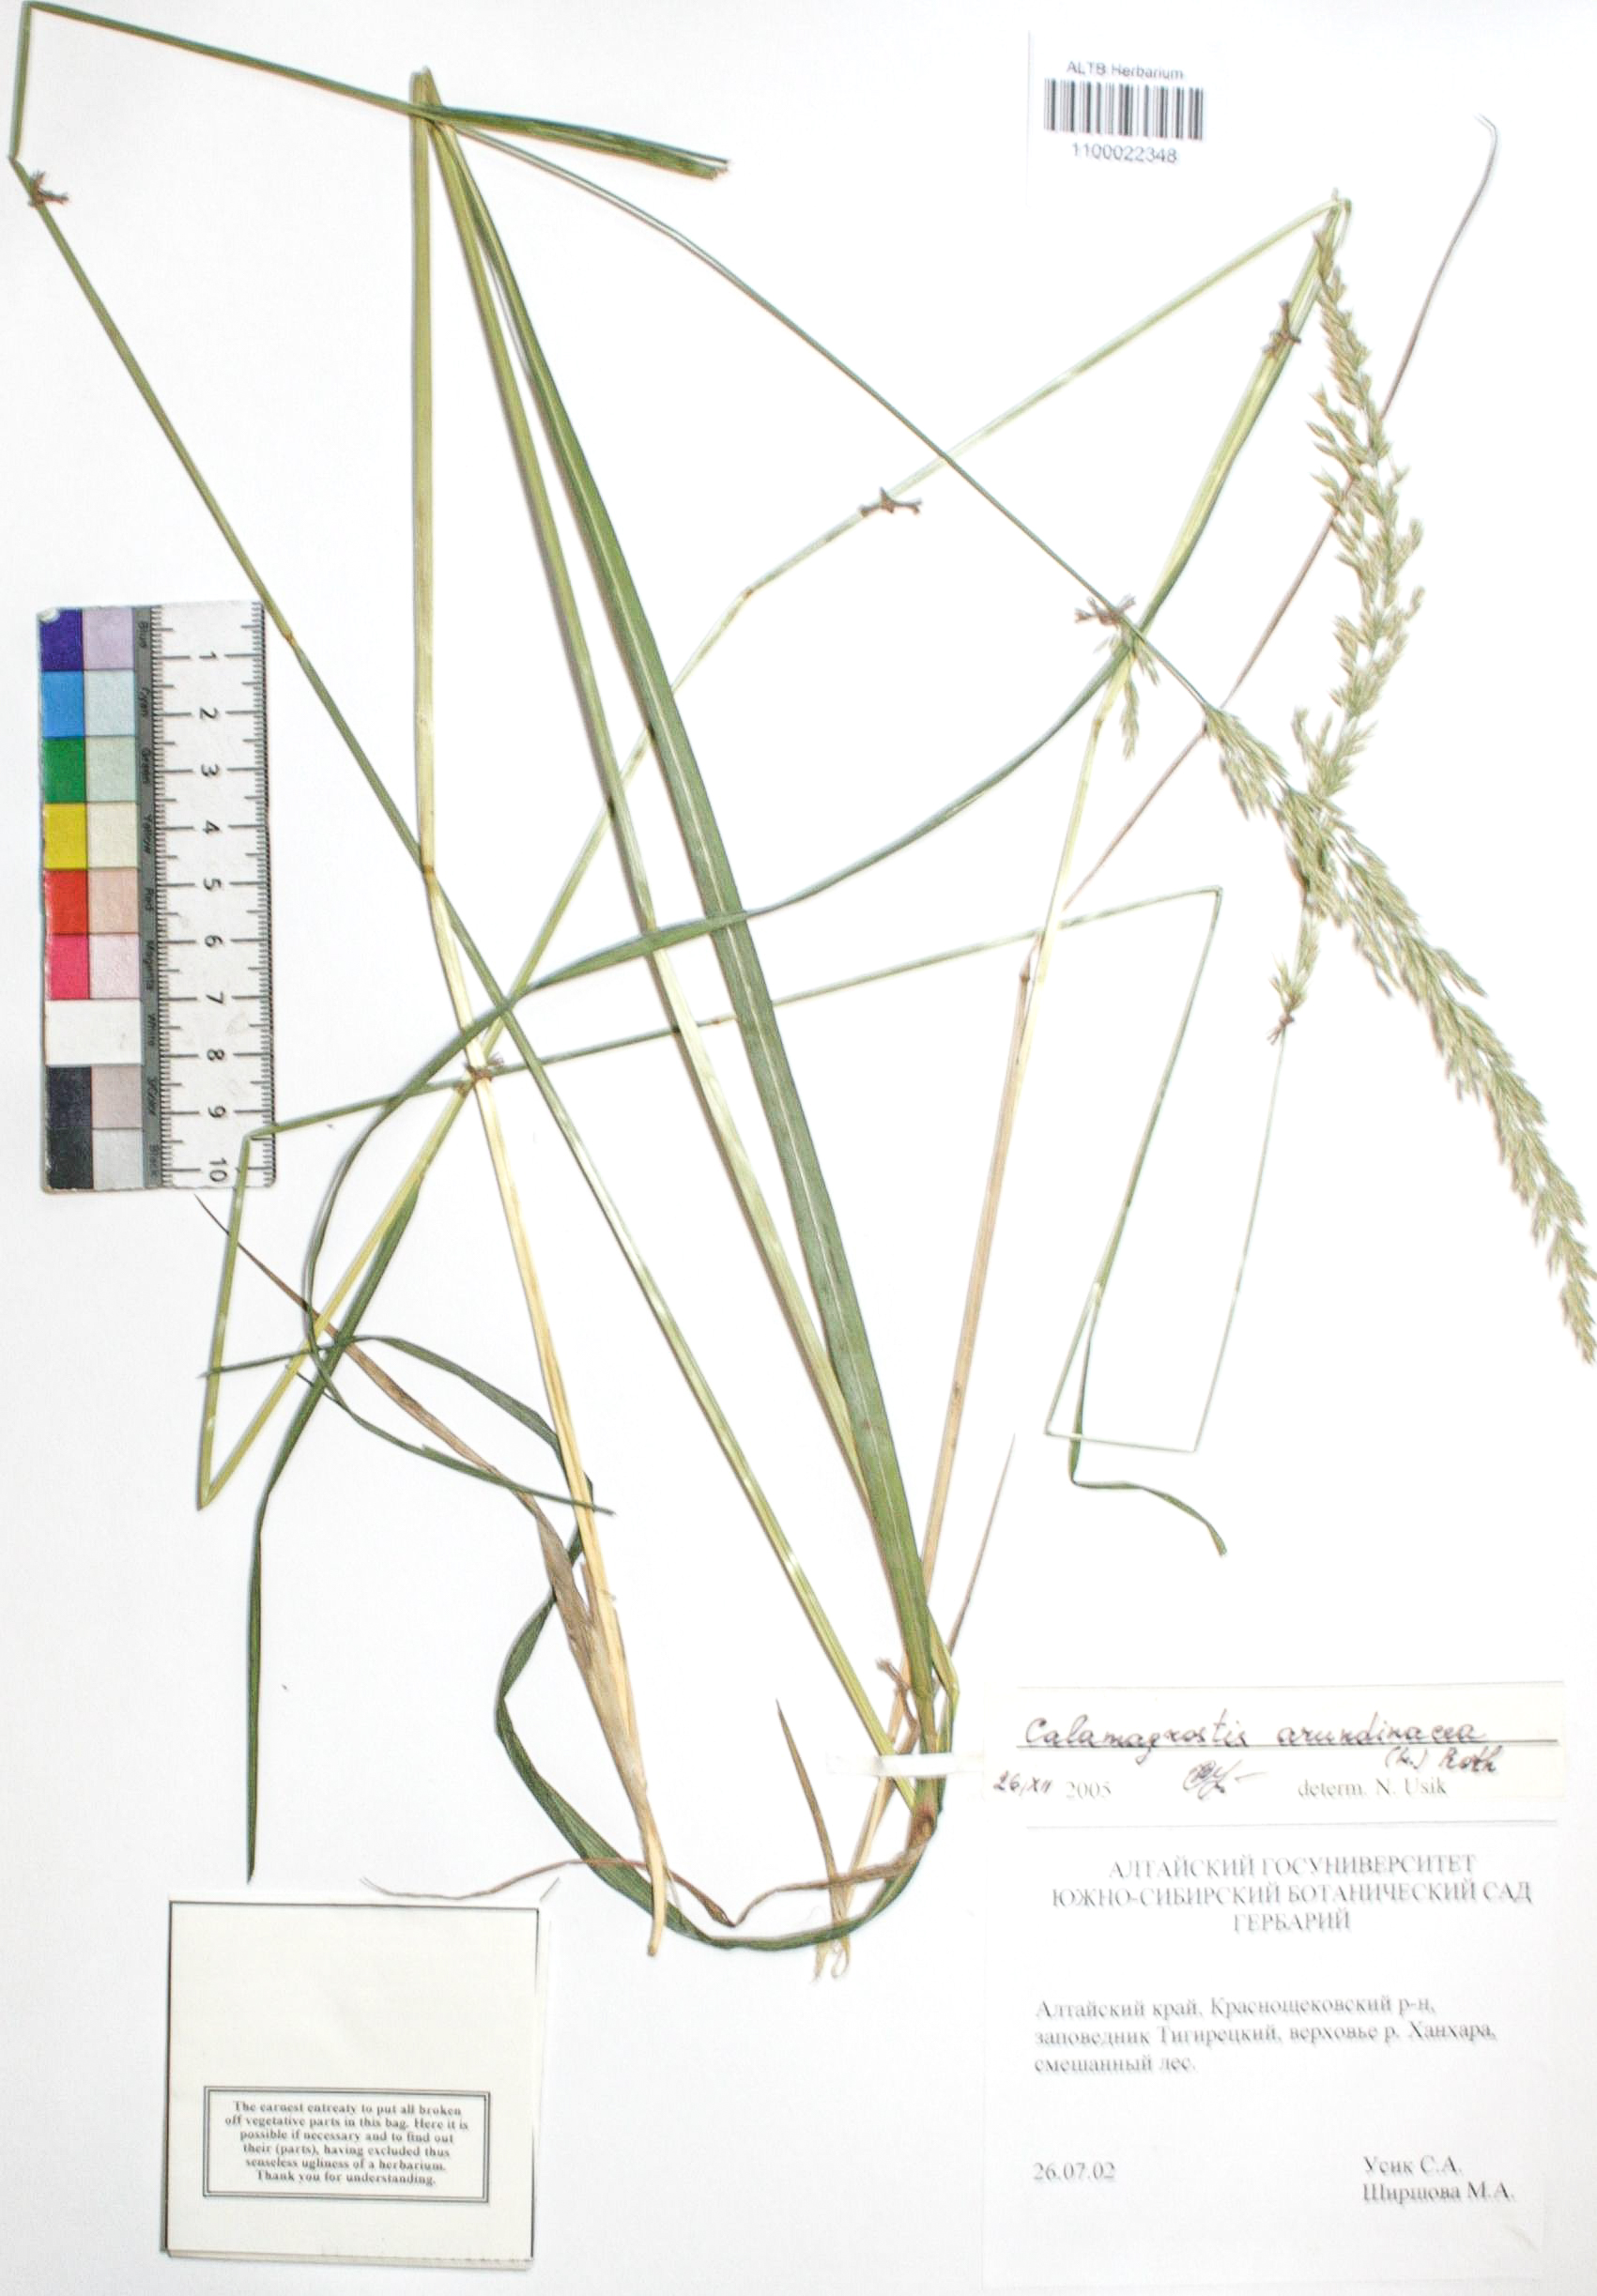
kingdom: Plantae
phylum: Tracheophyta
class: Liliopsida
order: Poales
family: Poaceae
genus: Calamagrostis
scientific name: Calamagrostis arundinacea
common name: Metskastik
